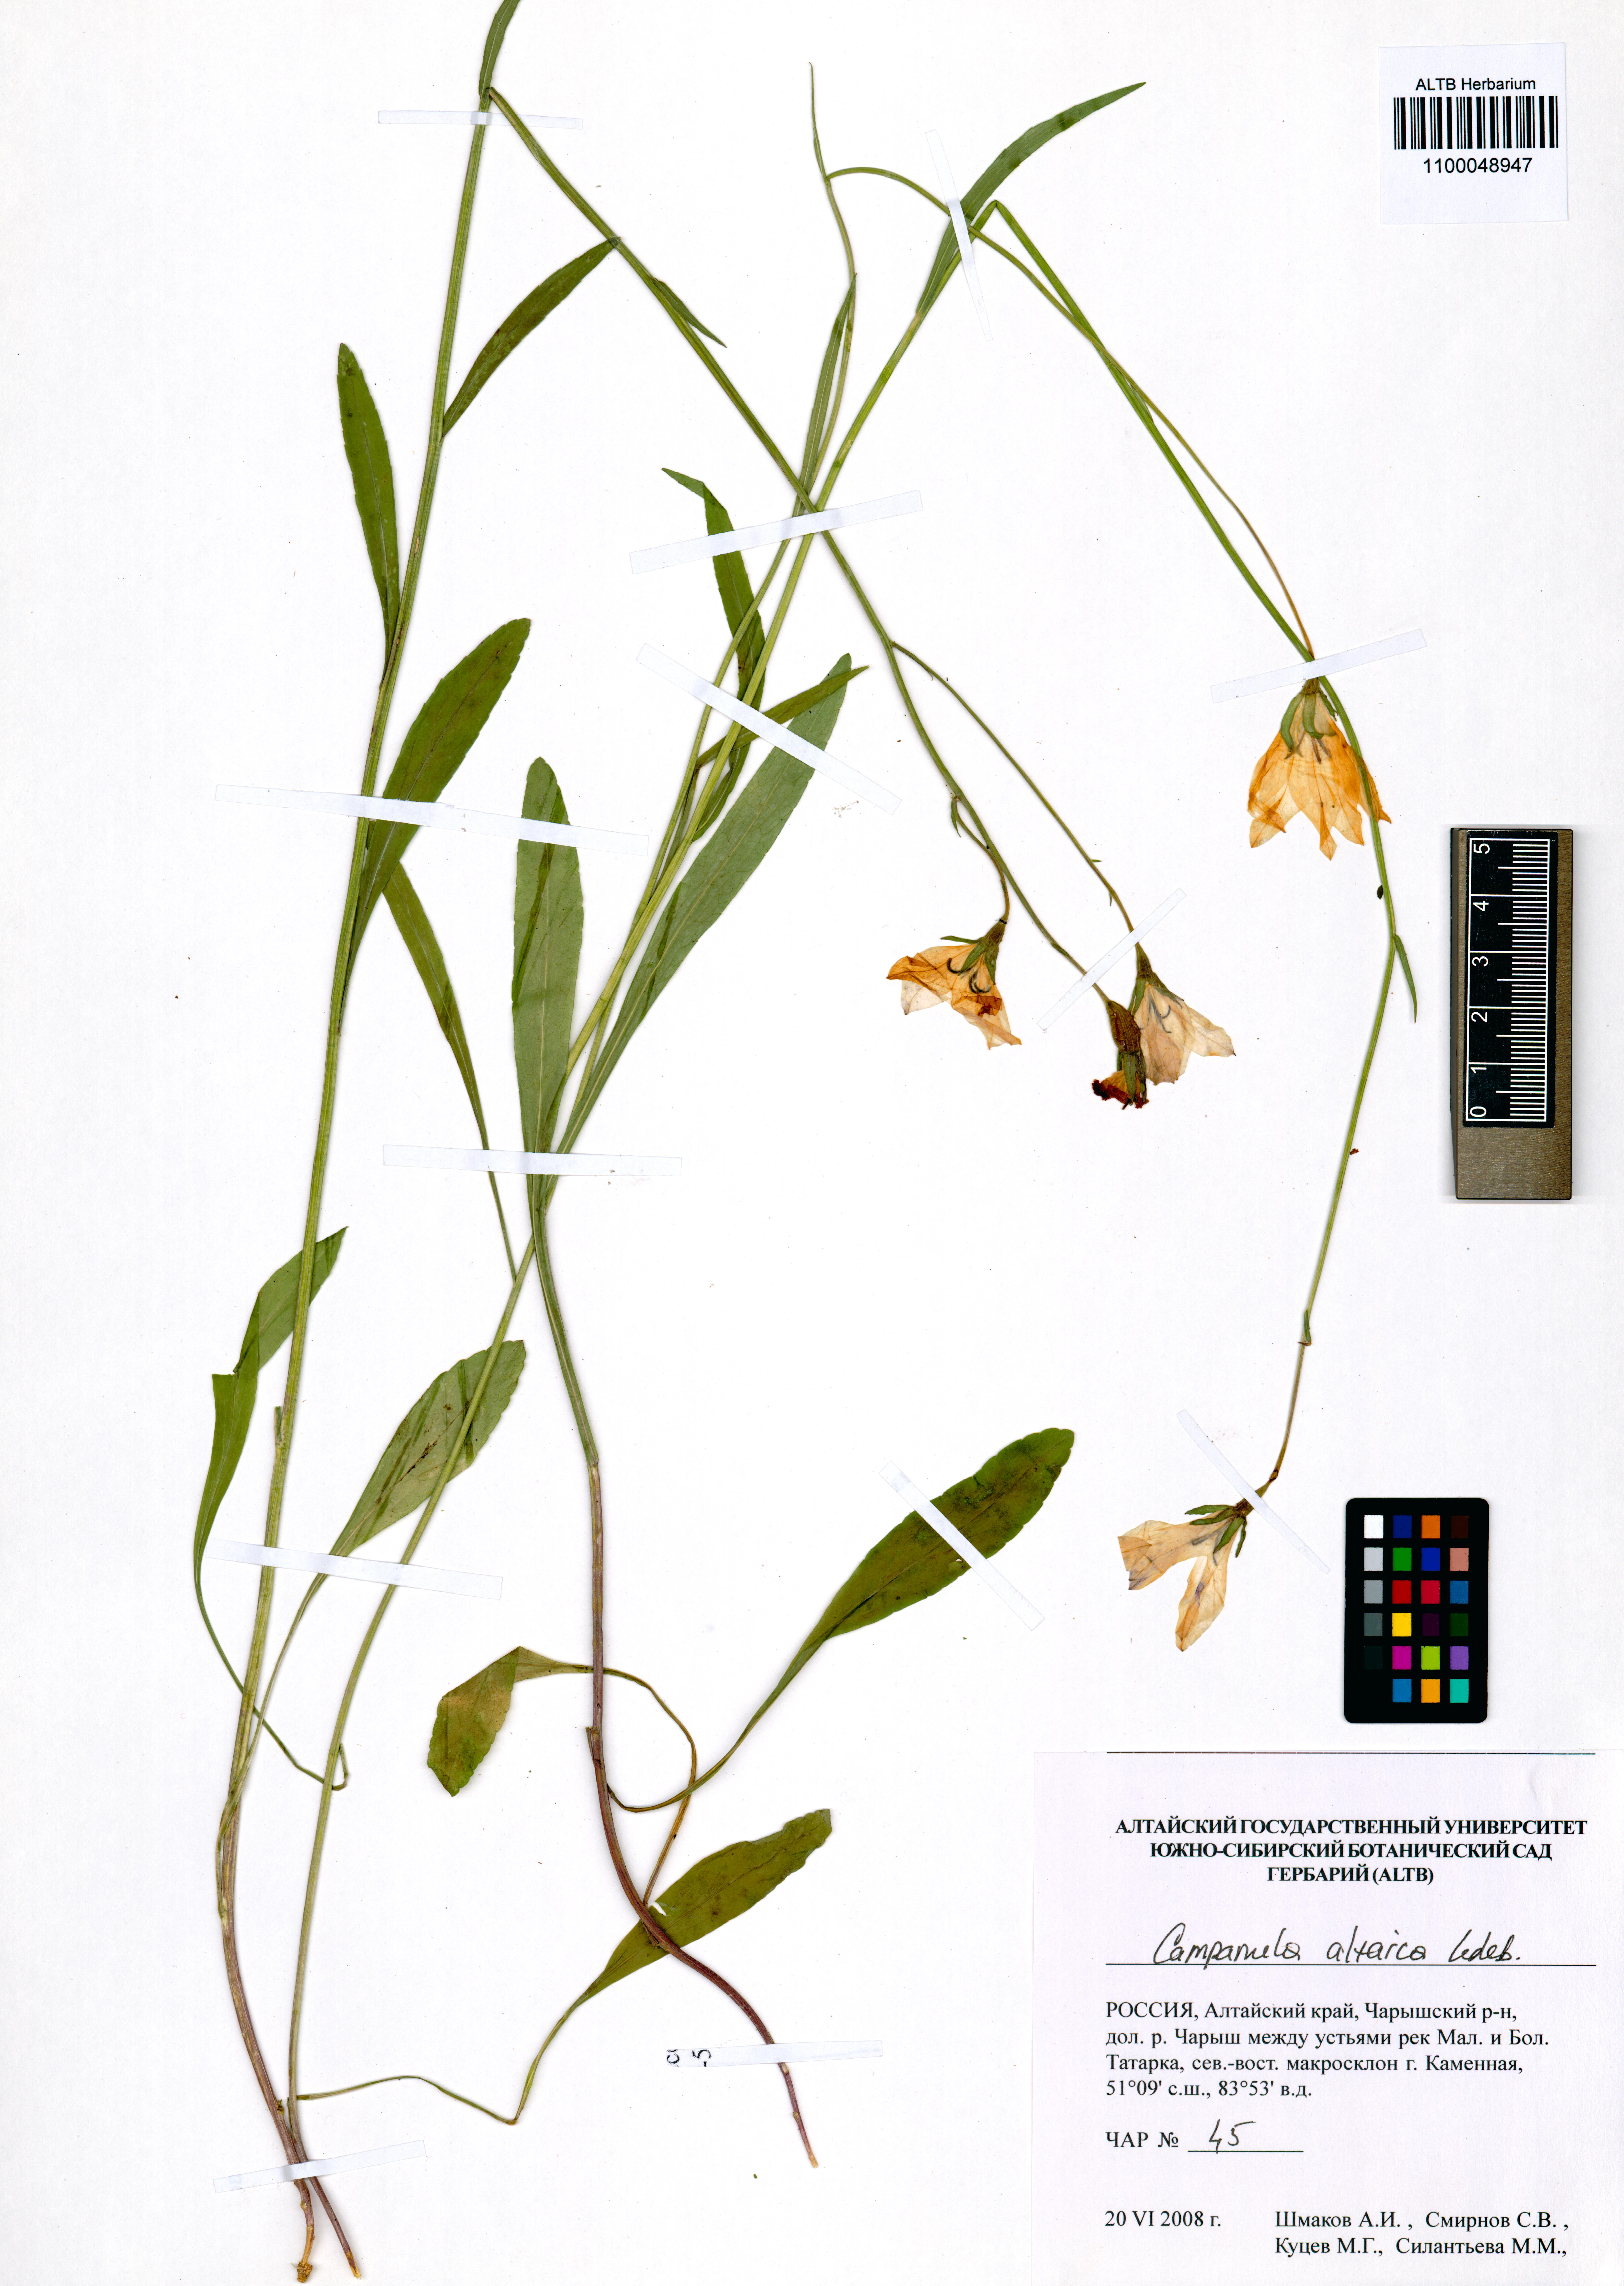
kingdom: Plantae
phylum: Tracheophyta
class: Magnoliopsida
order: Asterales
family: Campanulaceae
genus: Campanula
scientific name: Campanula stevenii
